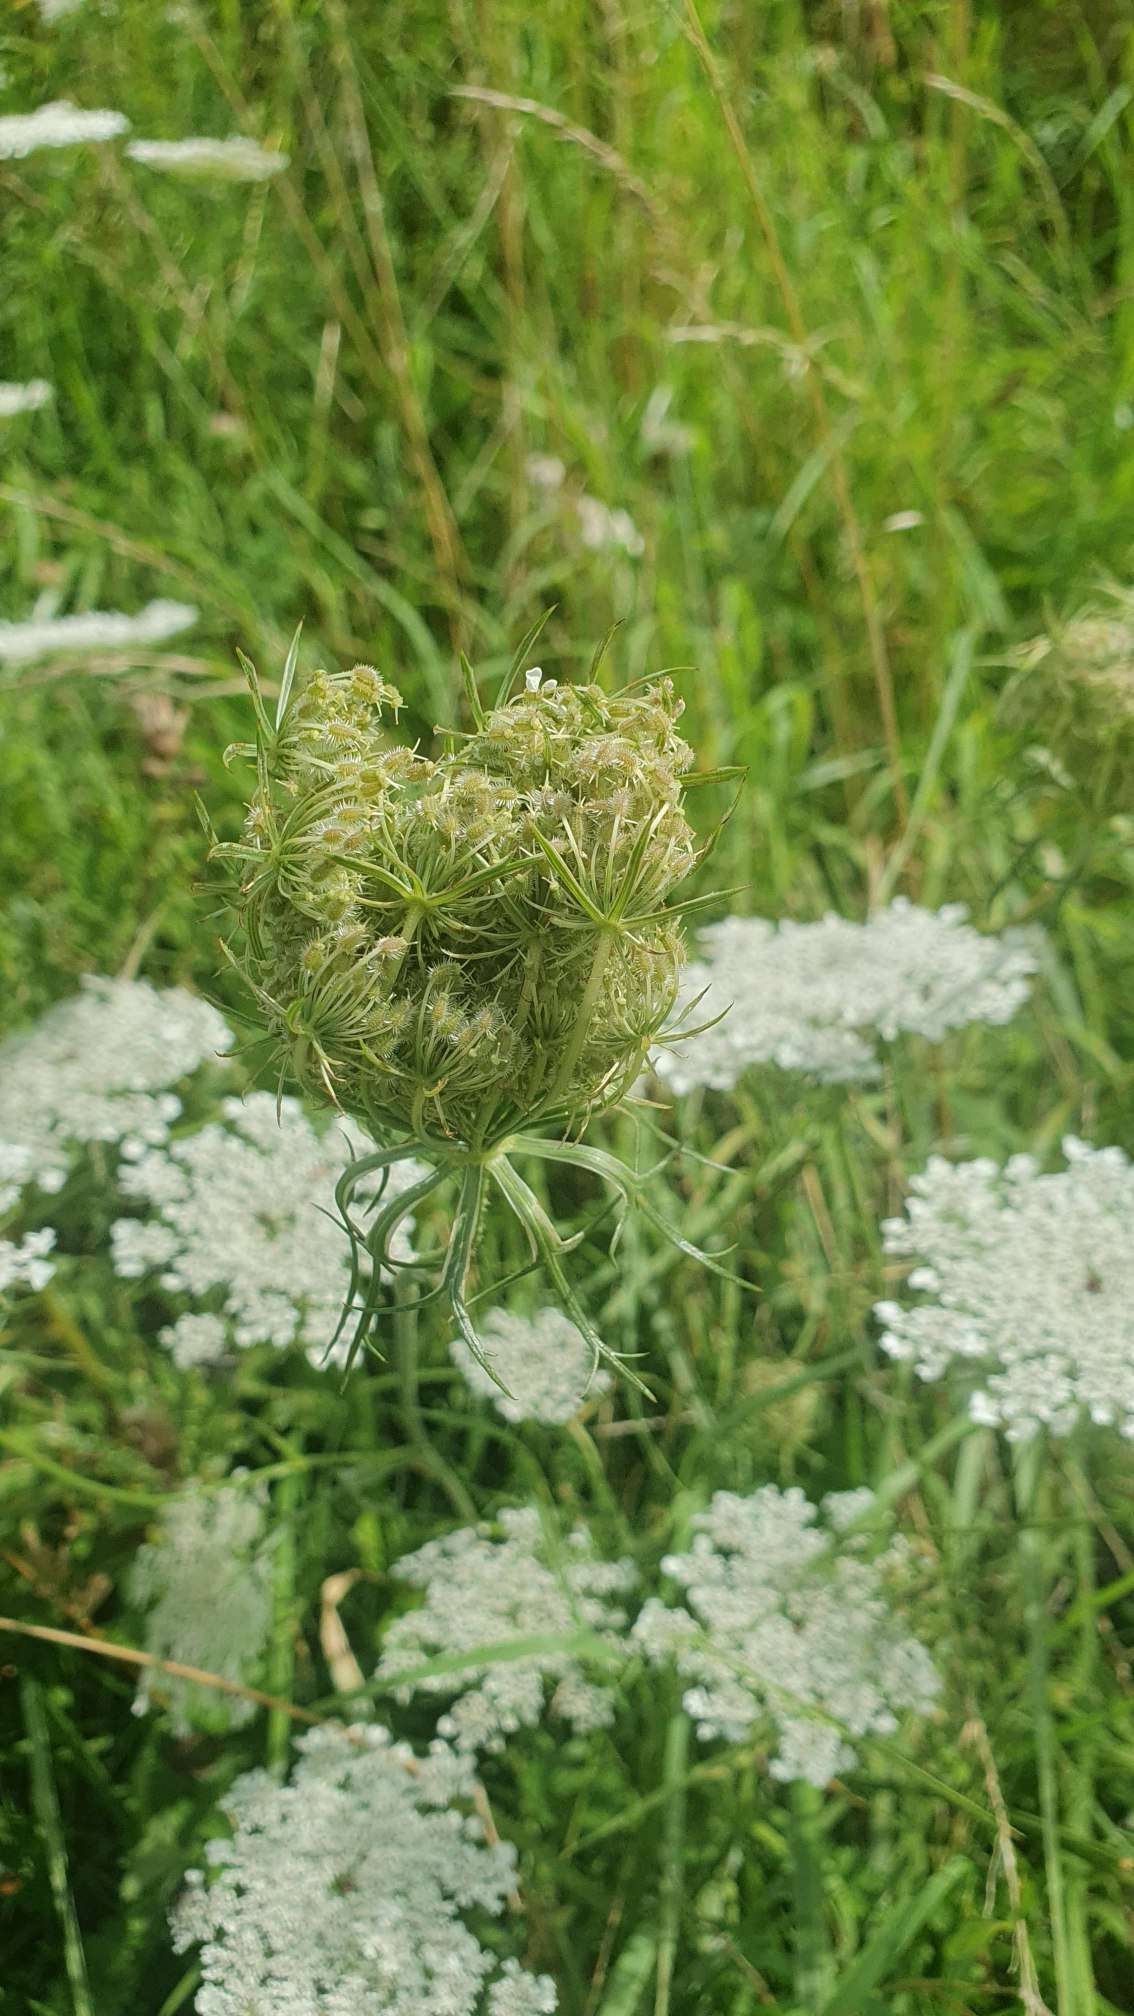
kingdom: Plantae
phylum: Tracheophyta
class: Magnoliopsida
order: Apiales
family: Apiaceae
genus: Daucus
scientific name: Daucus carota
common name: Vild gulerod
